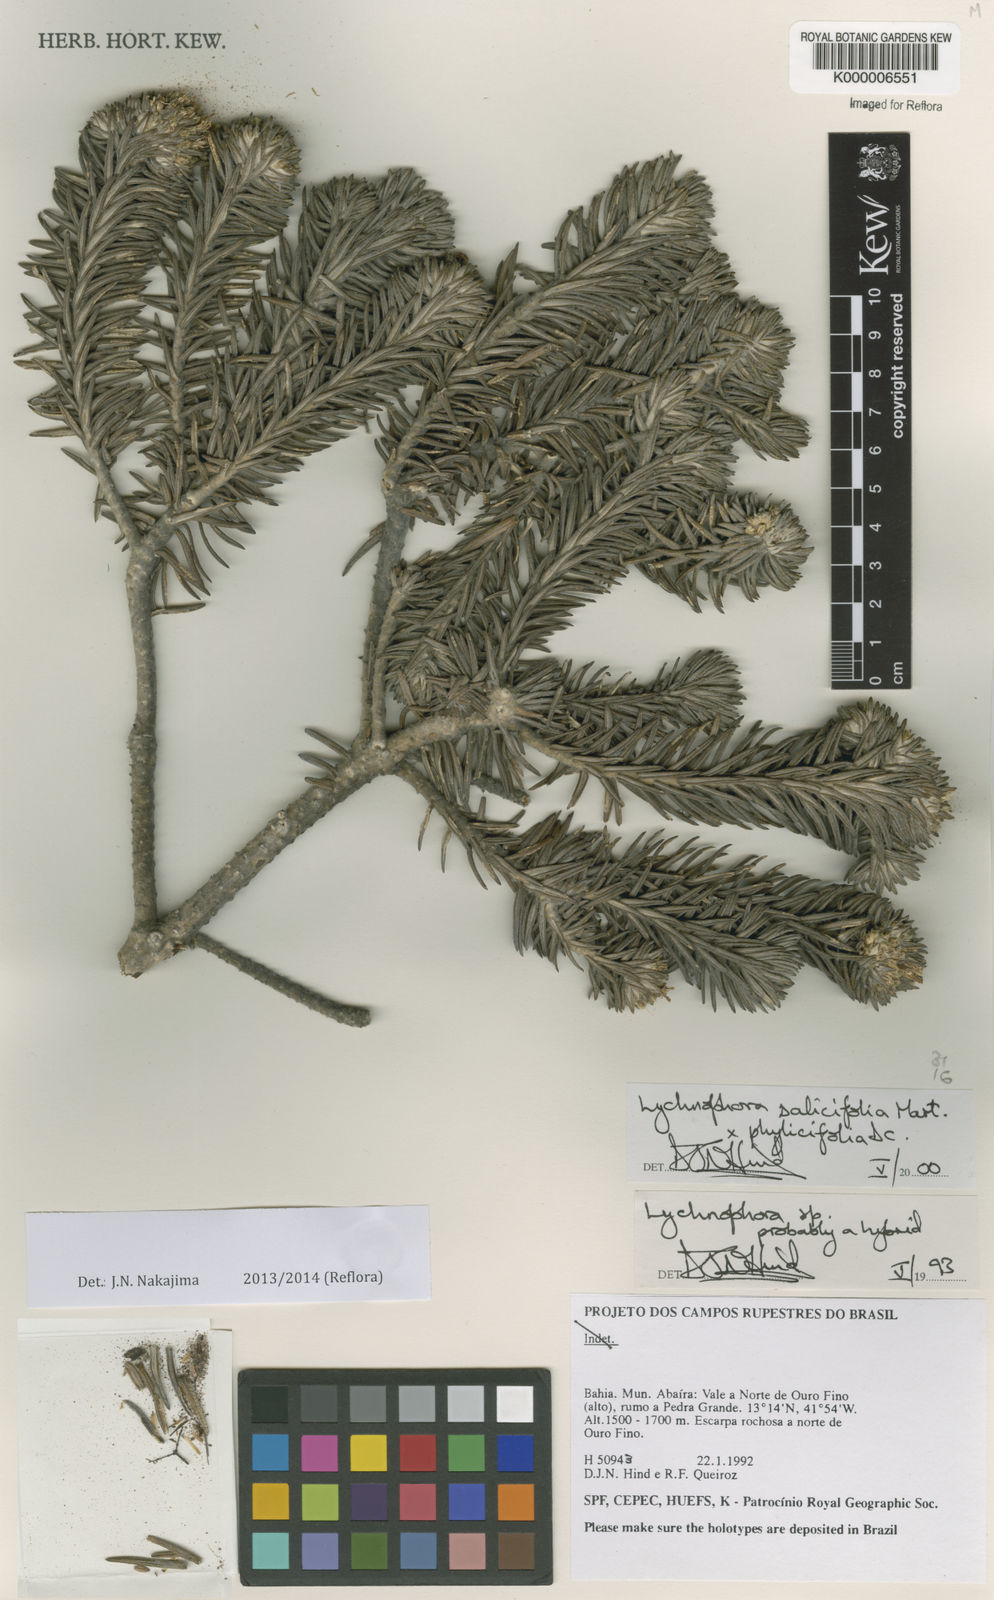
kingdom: Plantae
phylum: Tracheophyta
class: Magnoliopsida
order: Asterales
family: Asteraceae
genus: Lychnophora
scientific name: Lychnophora salicifolia
